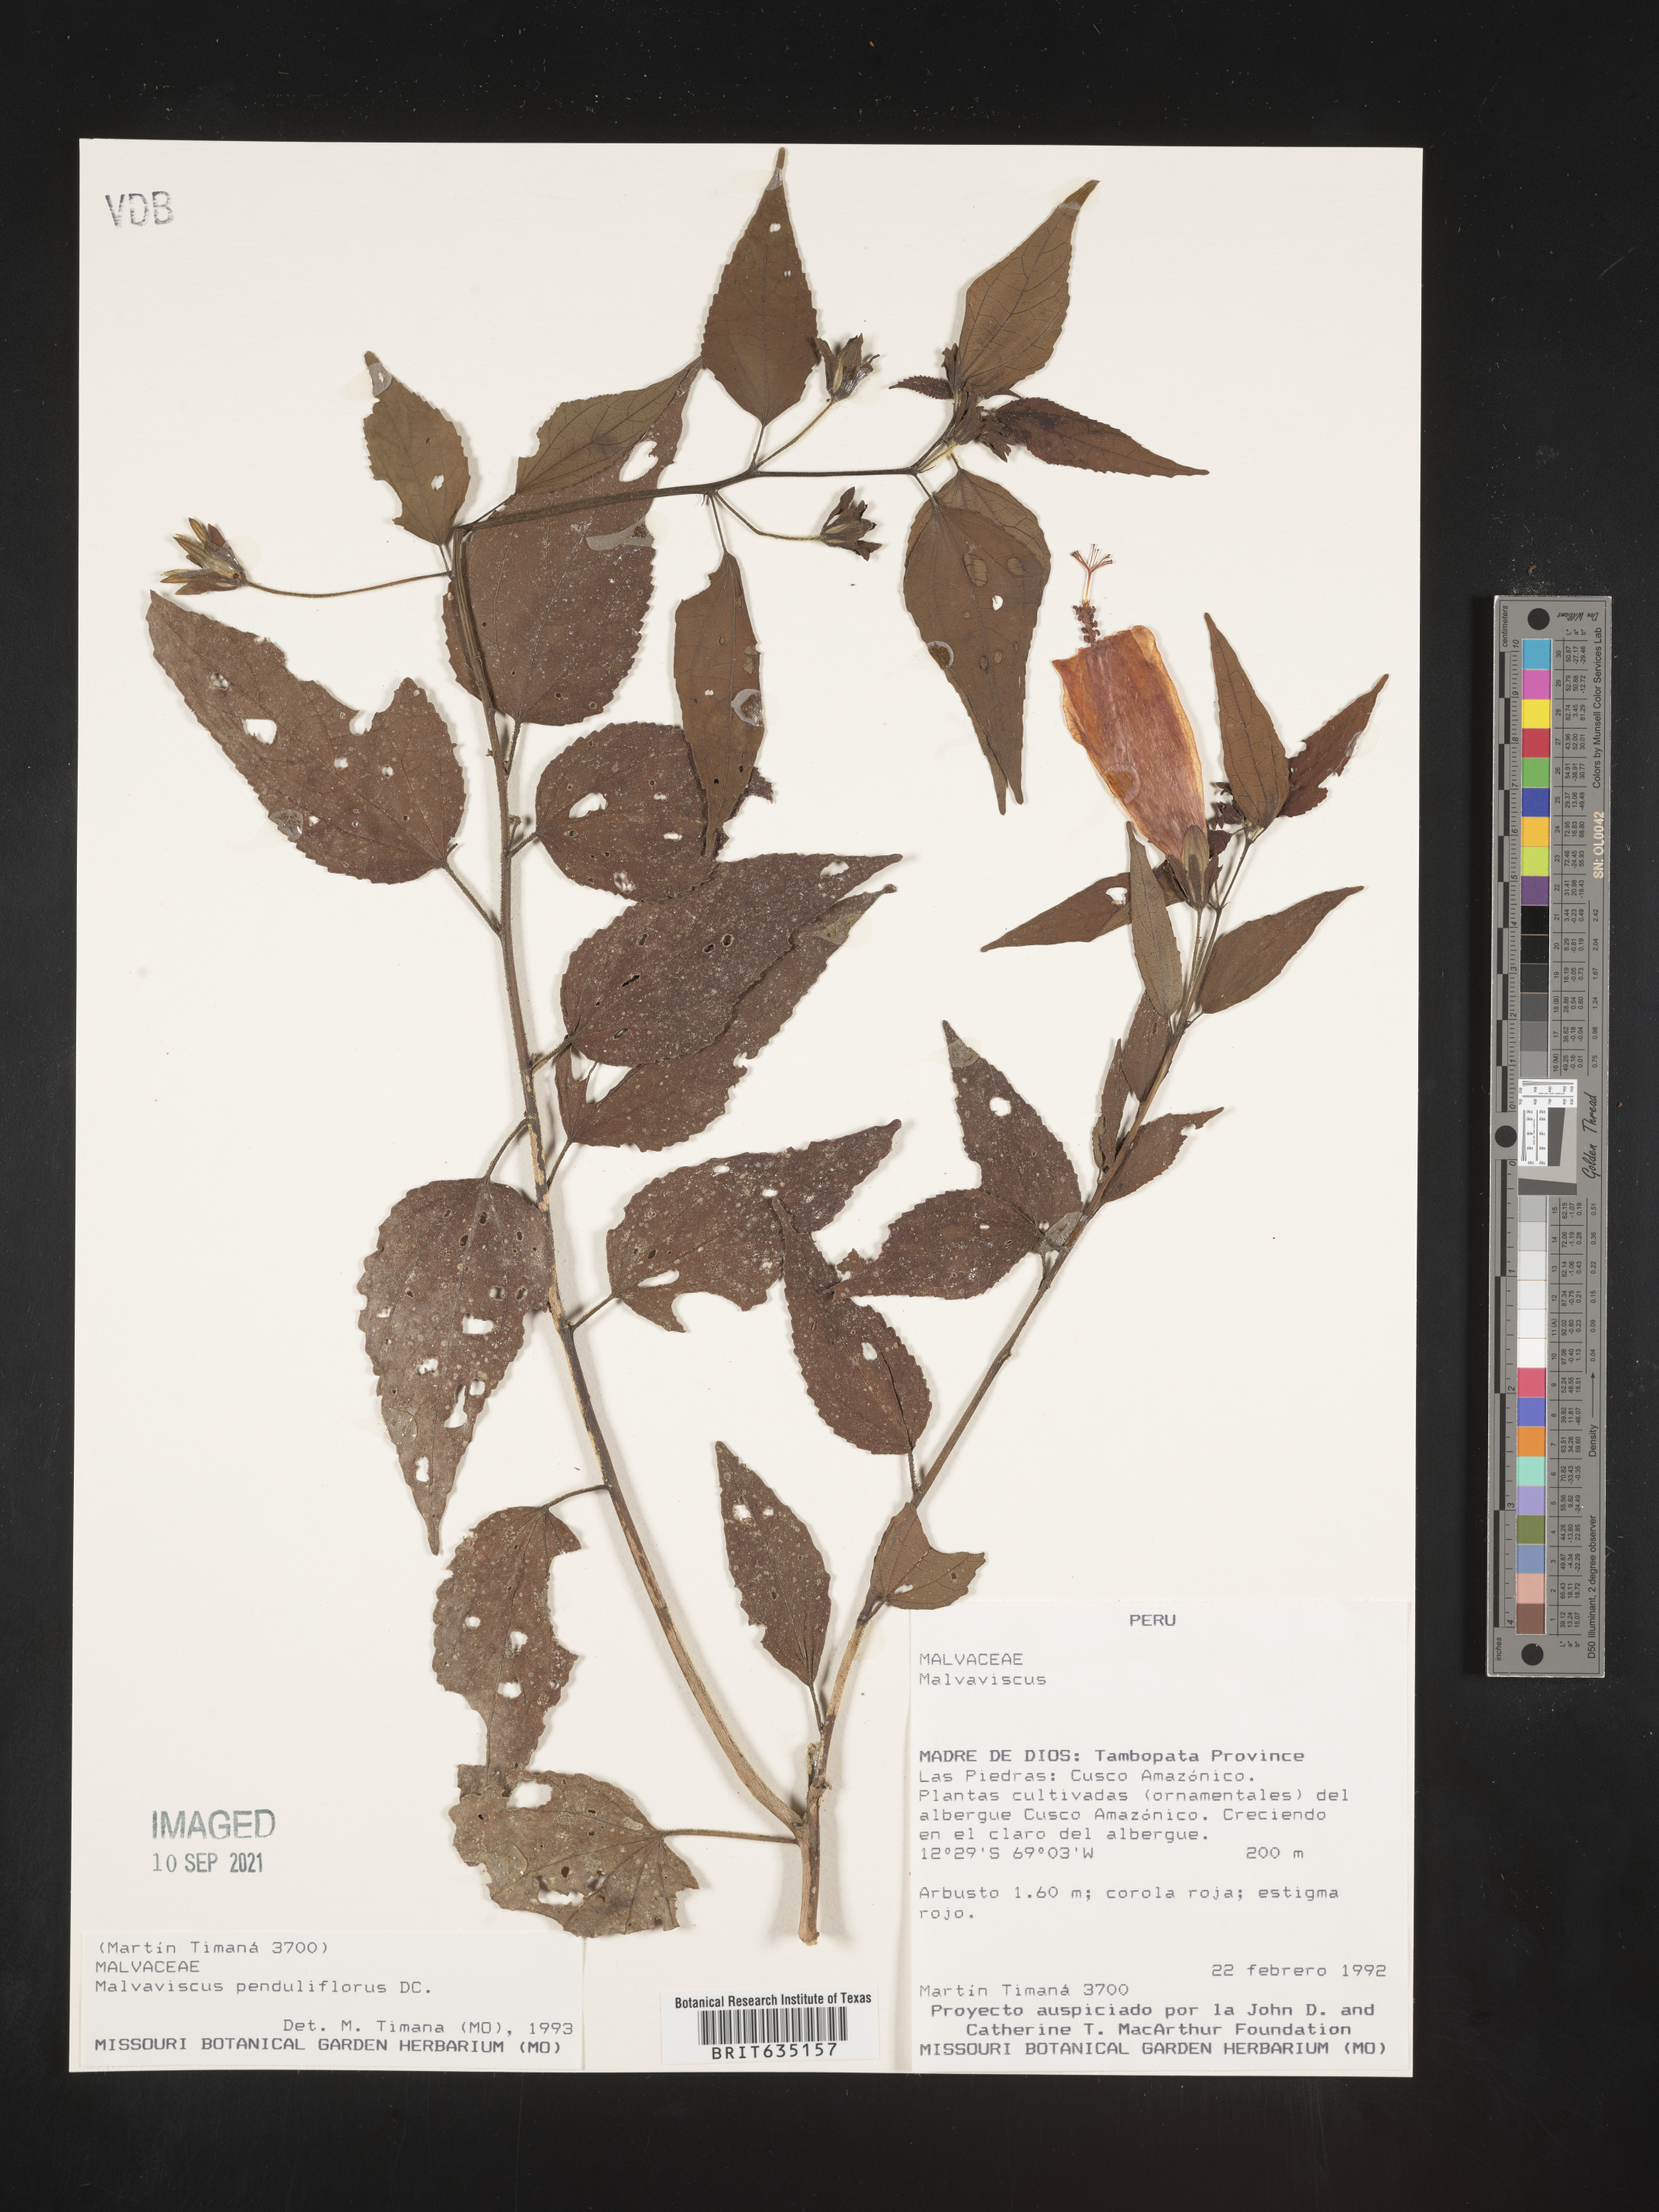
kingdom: Plantae
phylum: Tracheophyta
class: Magnoliopsida
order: Malvales
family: Malvaceae
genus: Malvaviscus
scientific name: Malvaviscus
